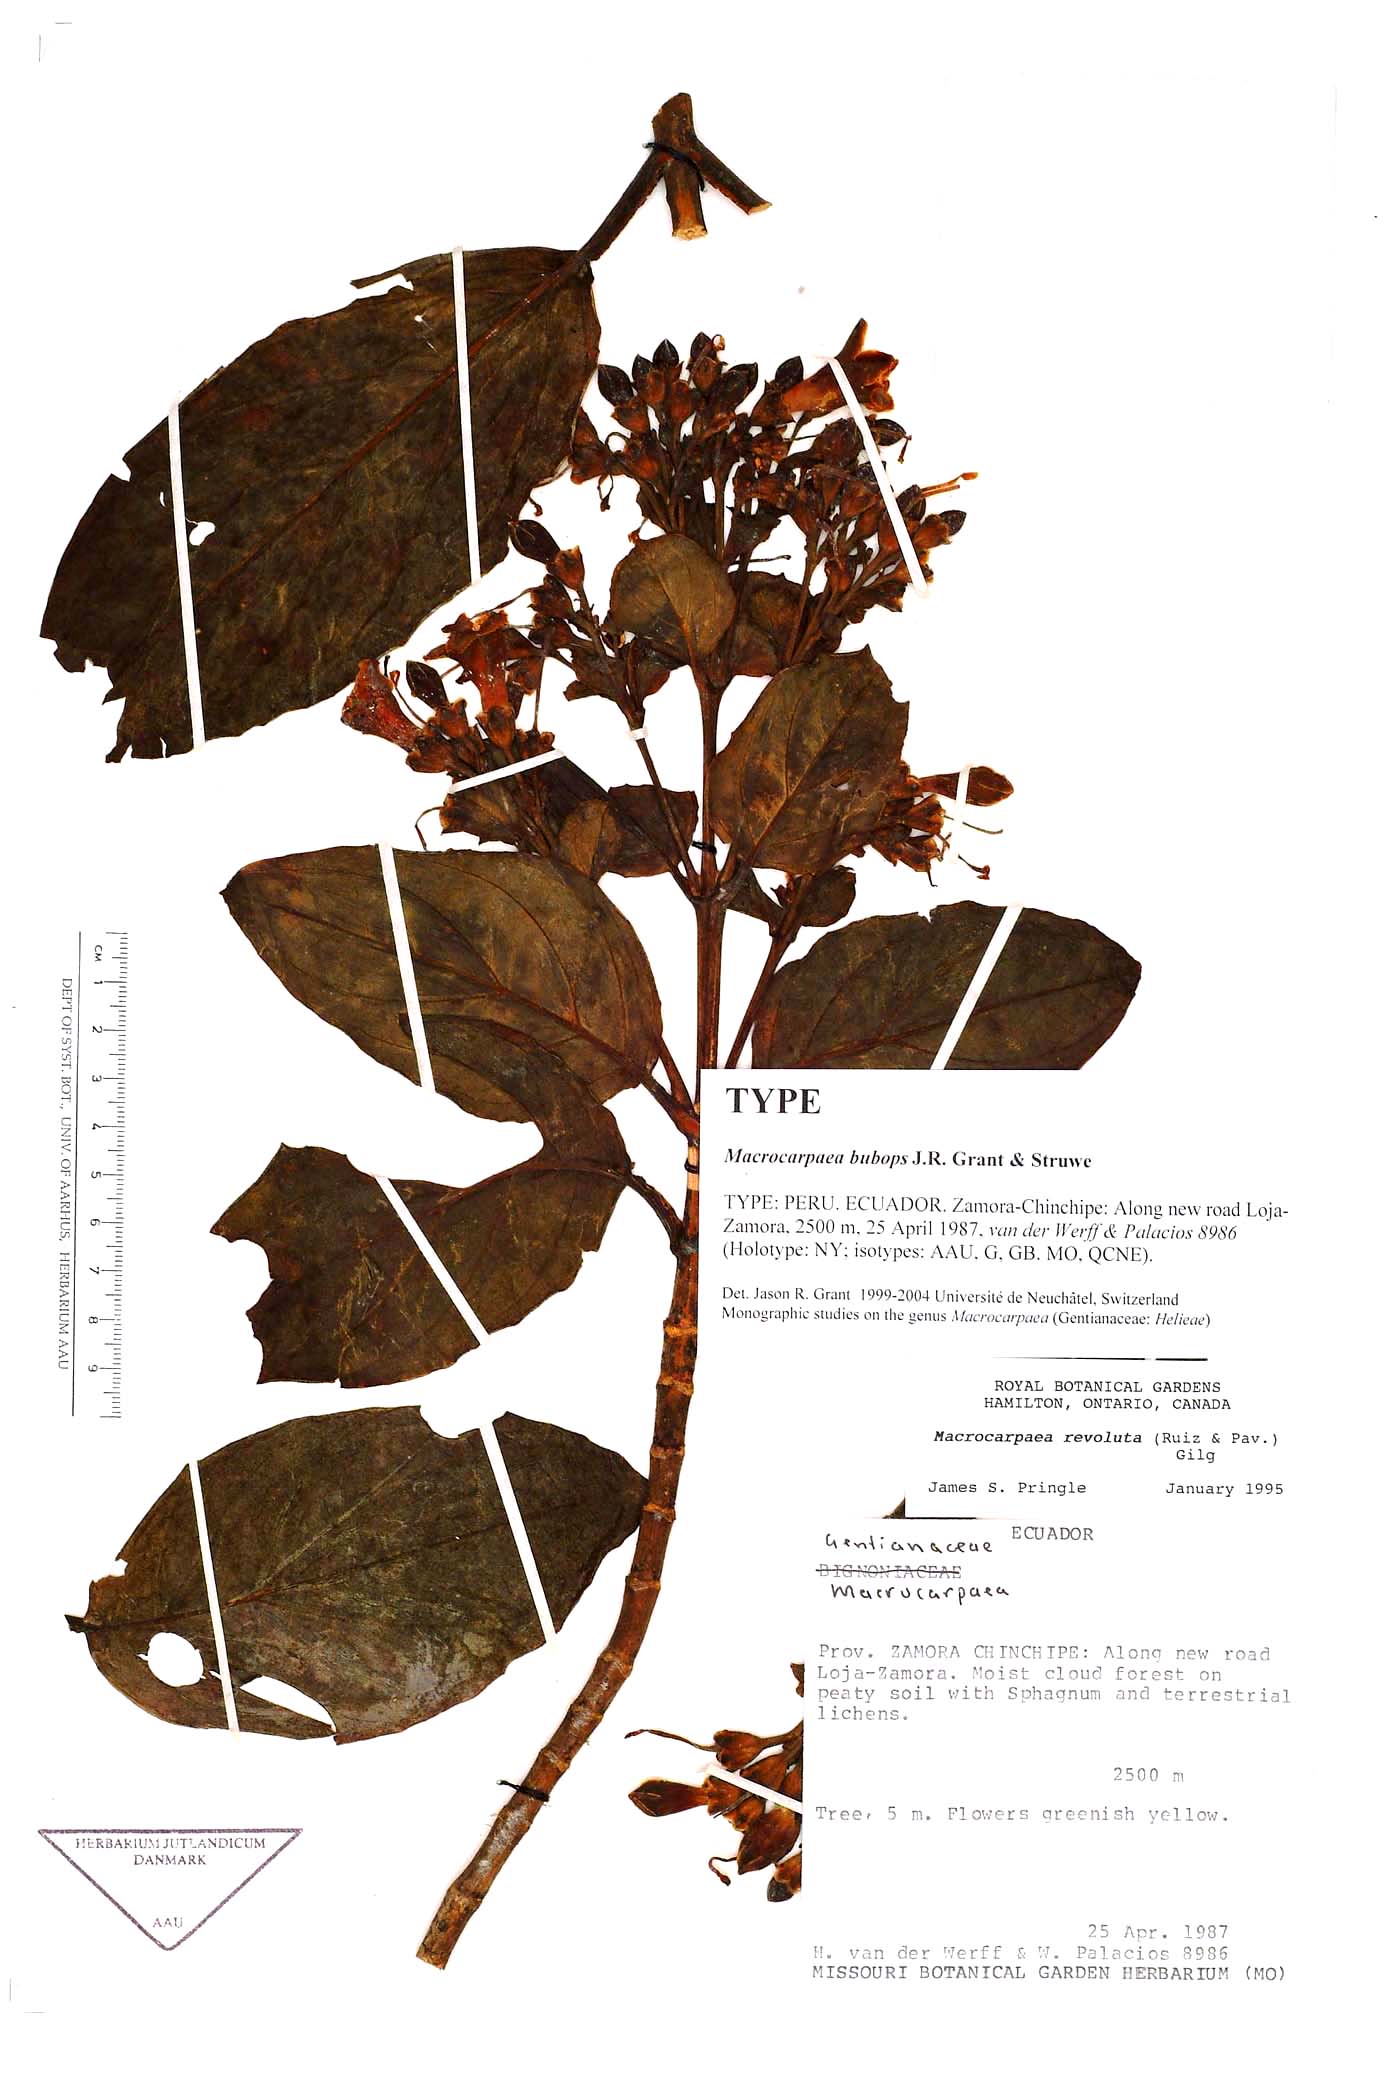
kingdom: Plantae
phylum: Tracheophyta
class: Magnoliopsida
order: Gentianales
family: Gentianaceae
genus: Macrocarpaea
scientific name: Macrocarpaea bubops
